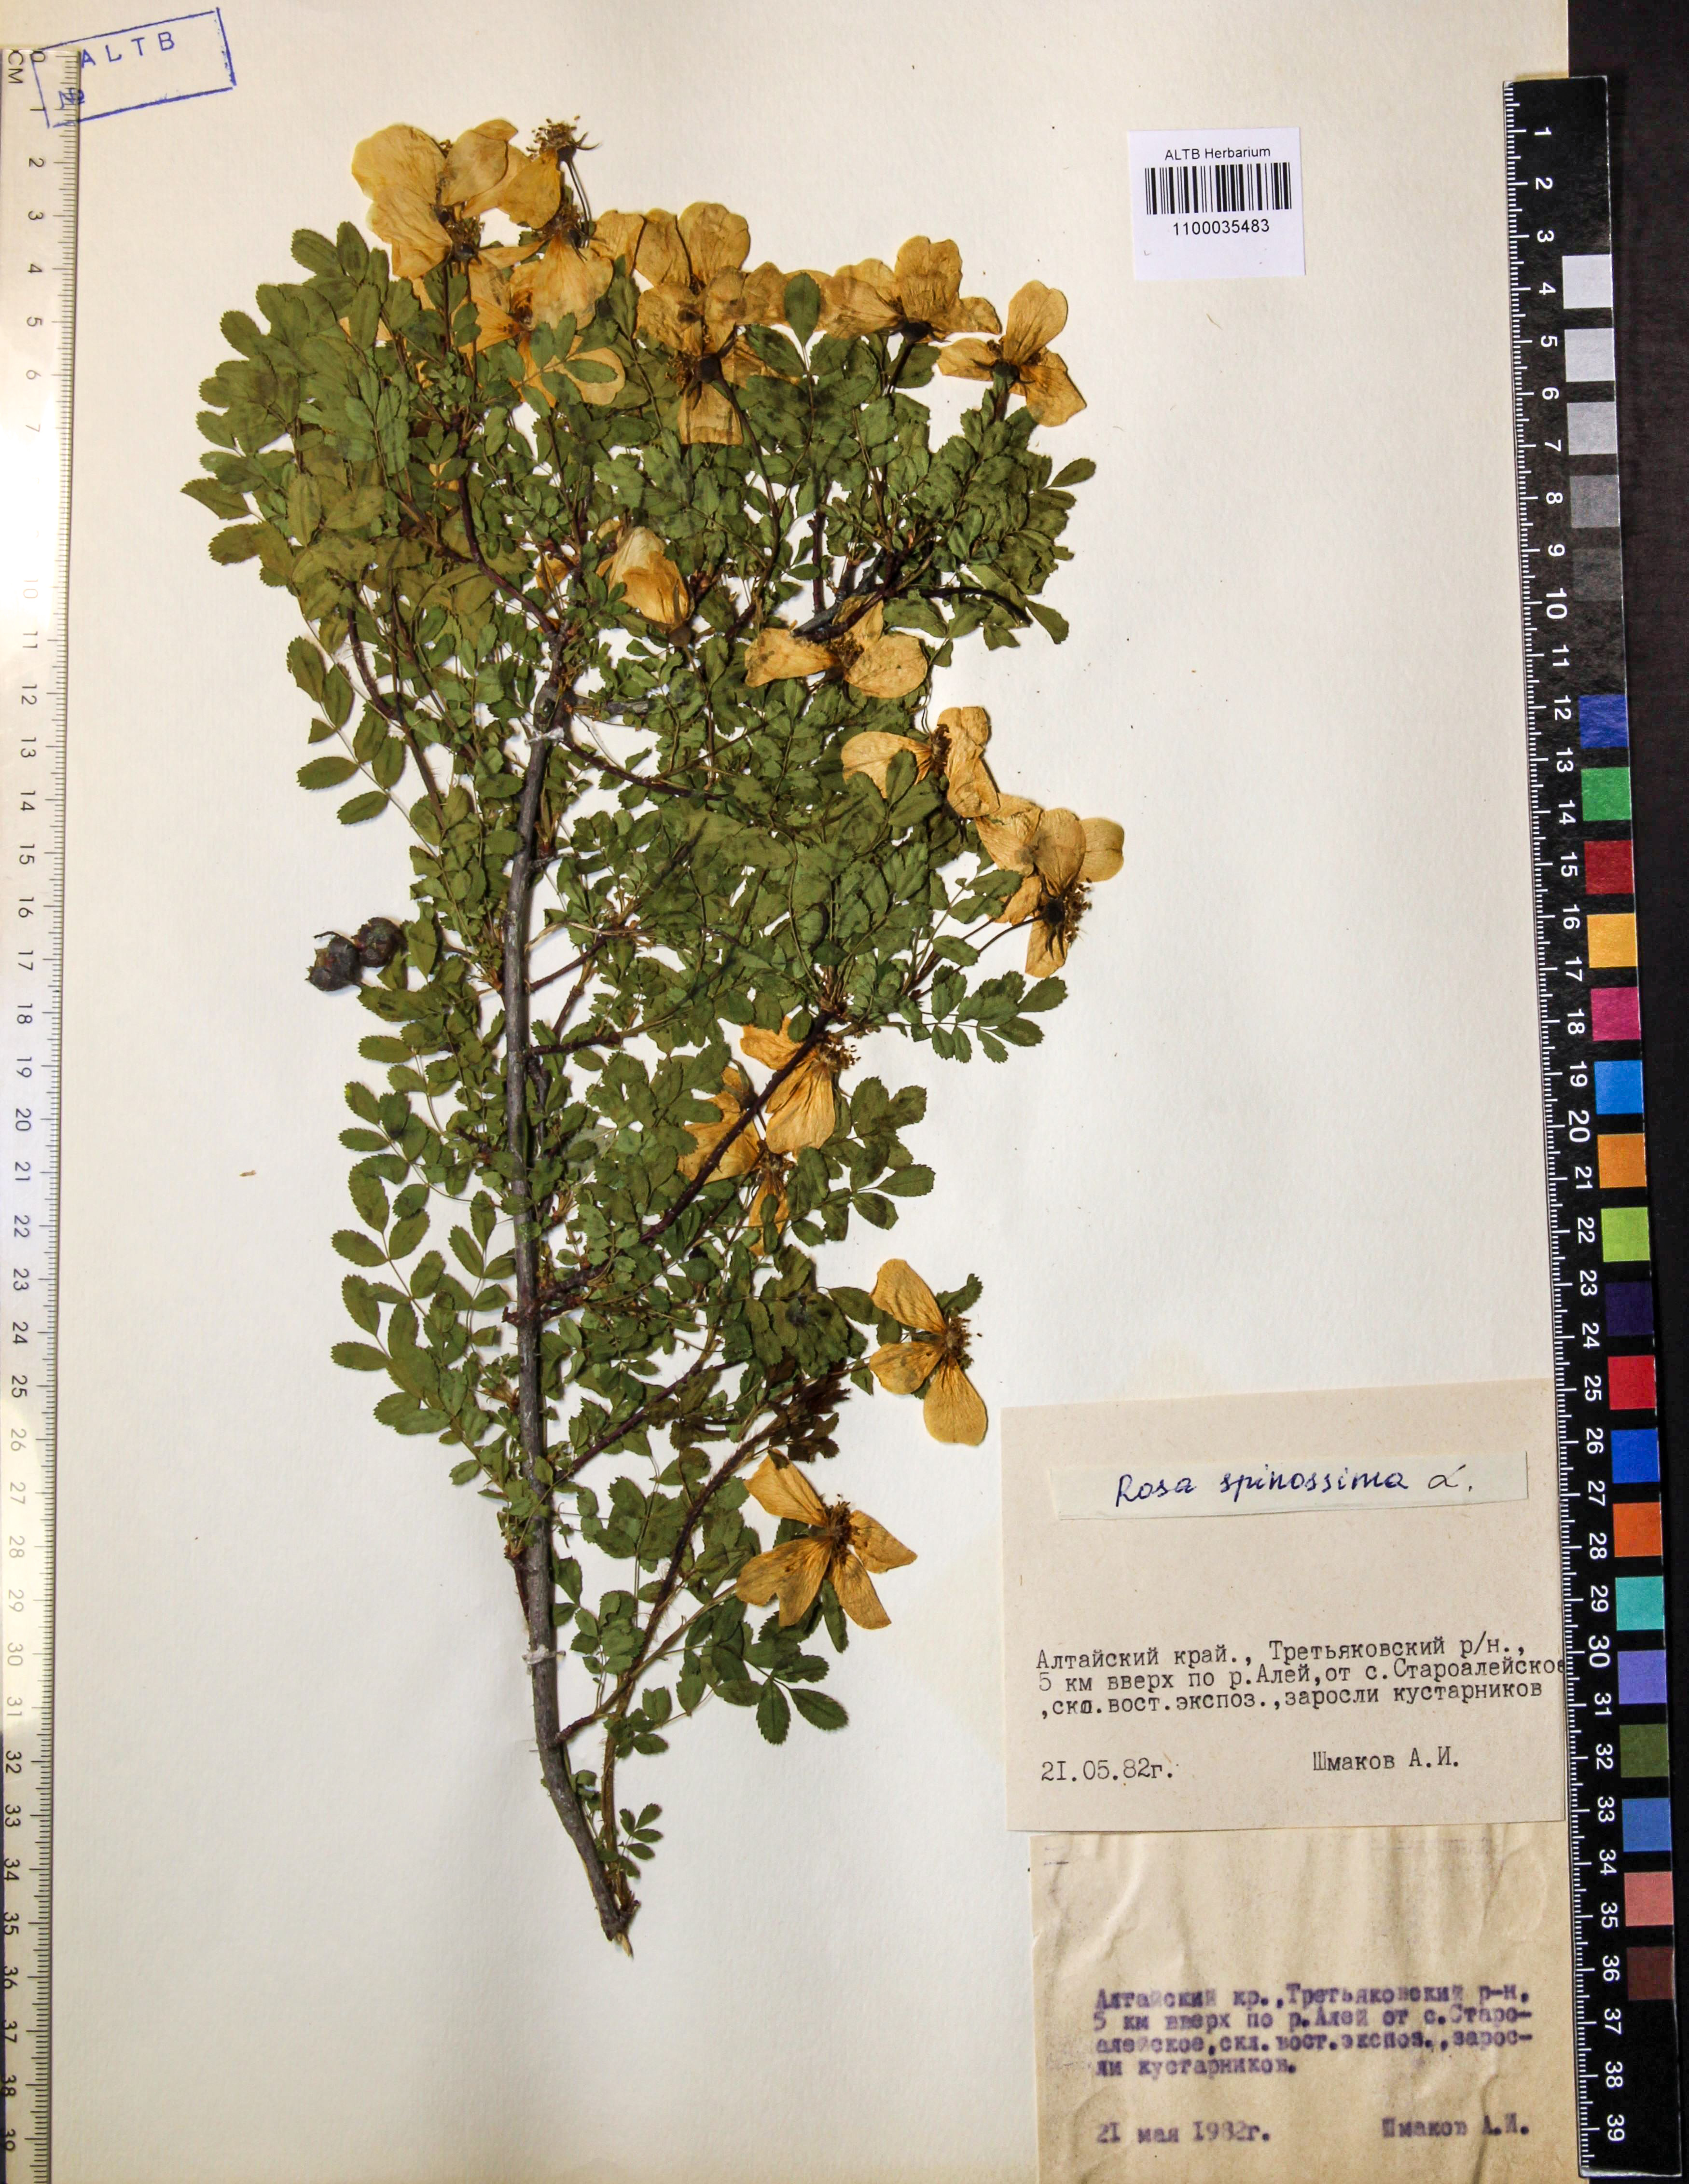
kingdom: Plantae
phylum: Tracheophyta
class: Magnoliopsida
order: Rosales
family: Rosaceae
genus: Rosa
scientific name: Rosa spinosissima
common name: Burnet rose
